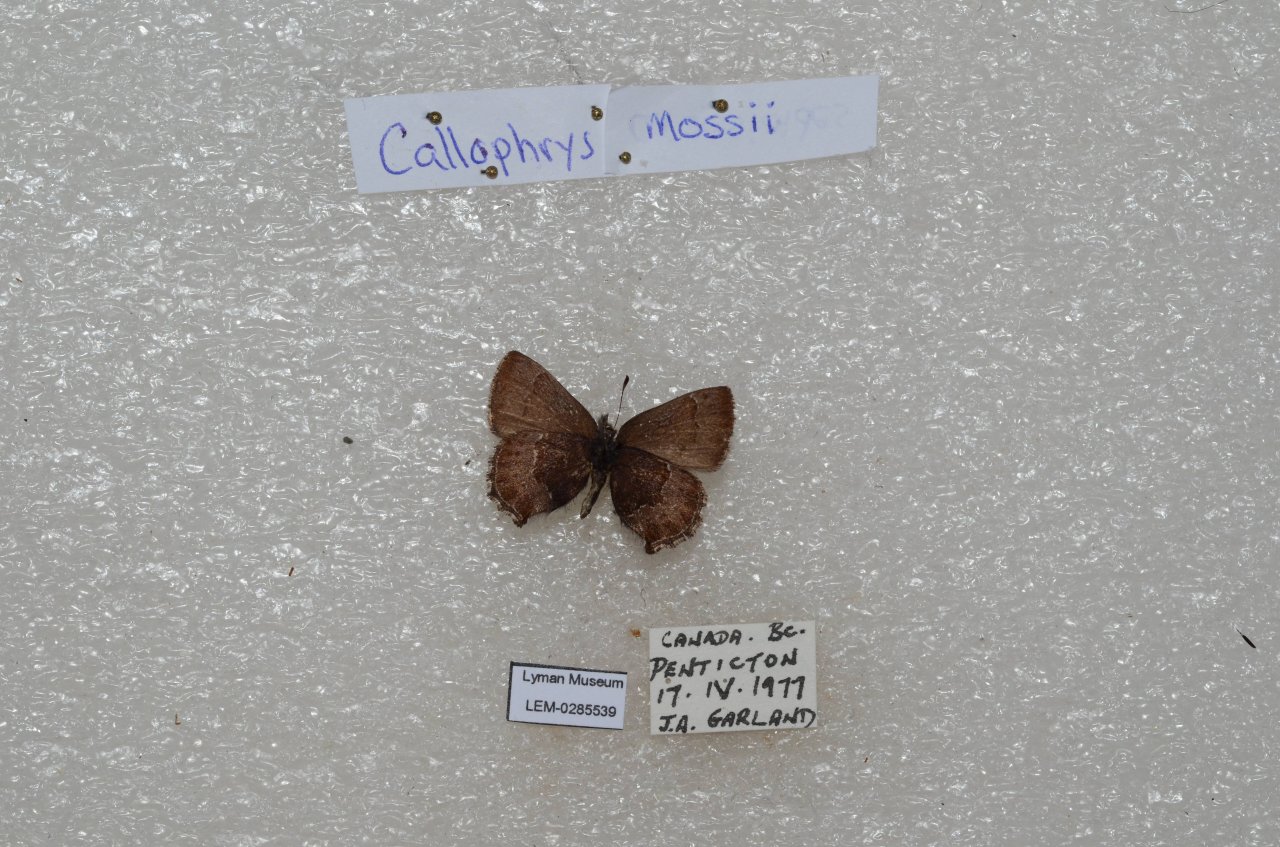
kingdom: Animalia
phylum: Arthropoda
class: Insecta
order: Lepidoptera
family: Lycaenidae
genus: Callophrys
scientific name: Callophrys mossii
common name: Moss' Elfin
